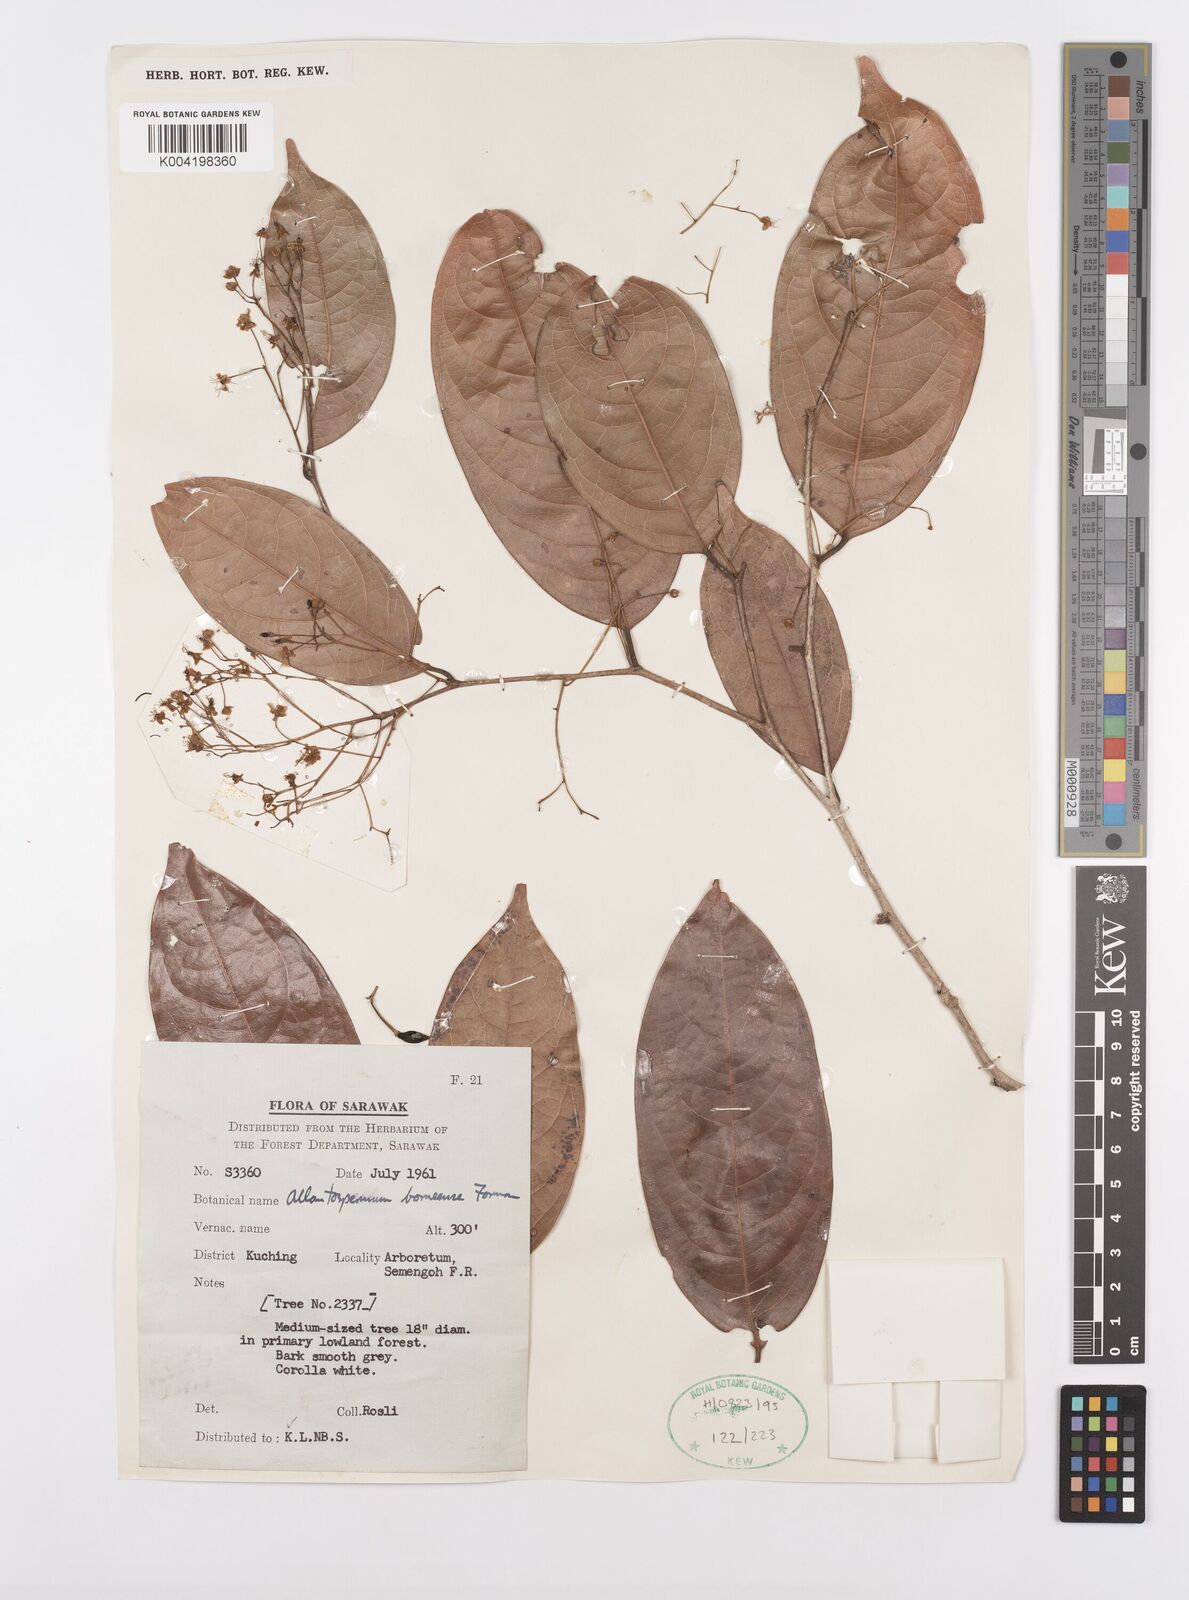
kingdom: Plantae
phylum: Tracheophyta
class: Magnoliopsida
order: Malpighiales
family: Ixonanthaceae
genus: Allantospermum
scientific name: Allantospermum borneense
